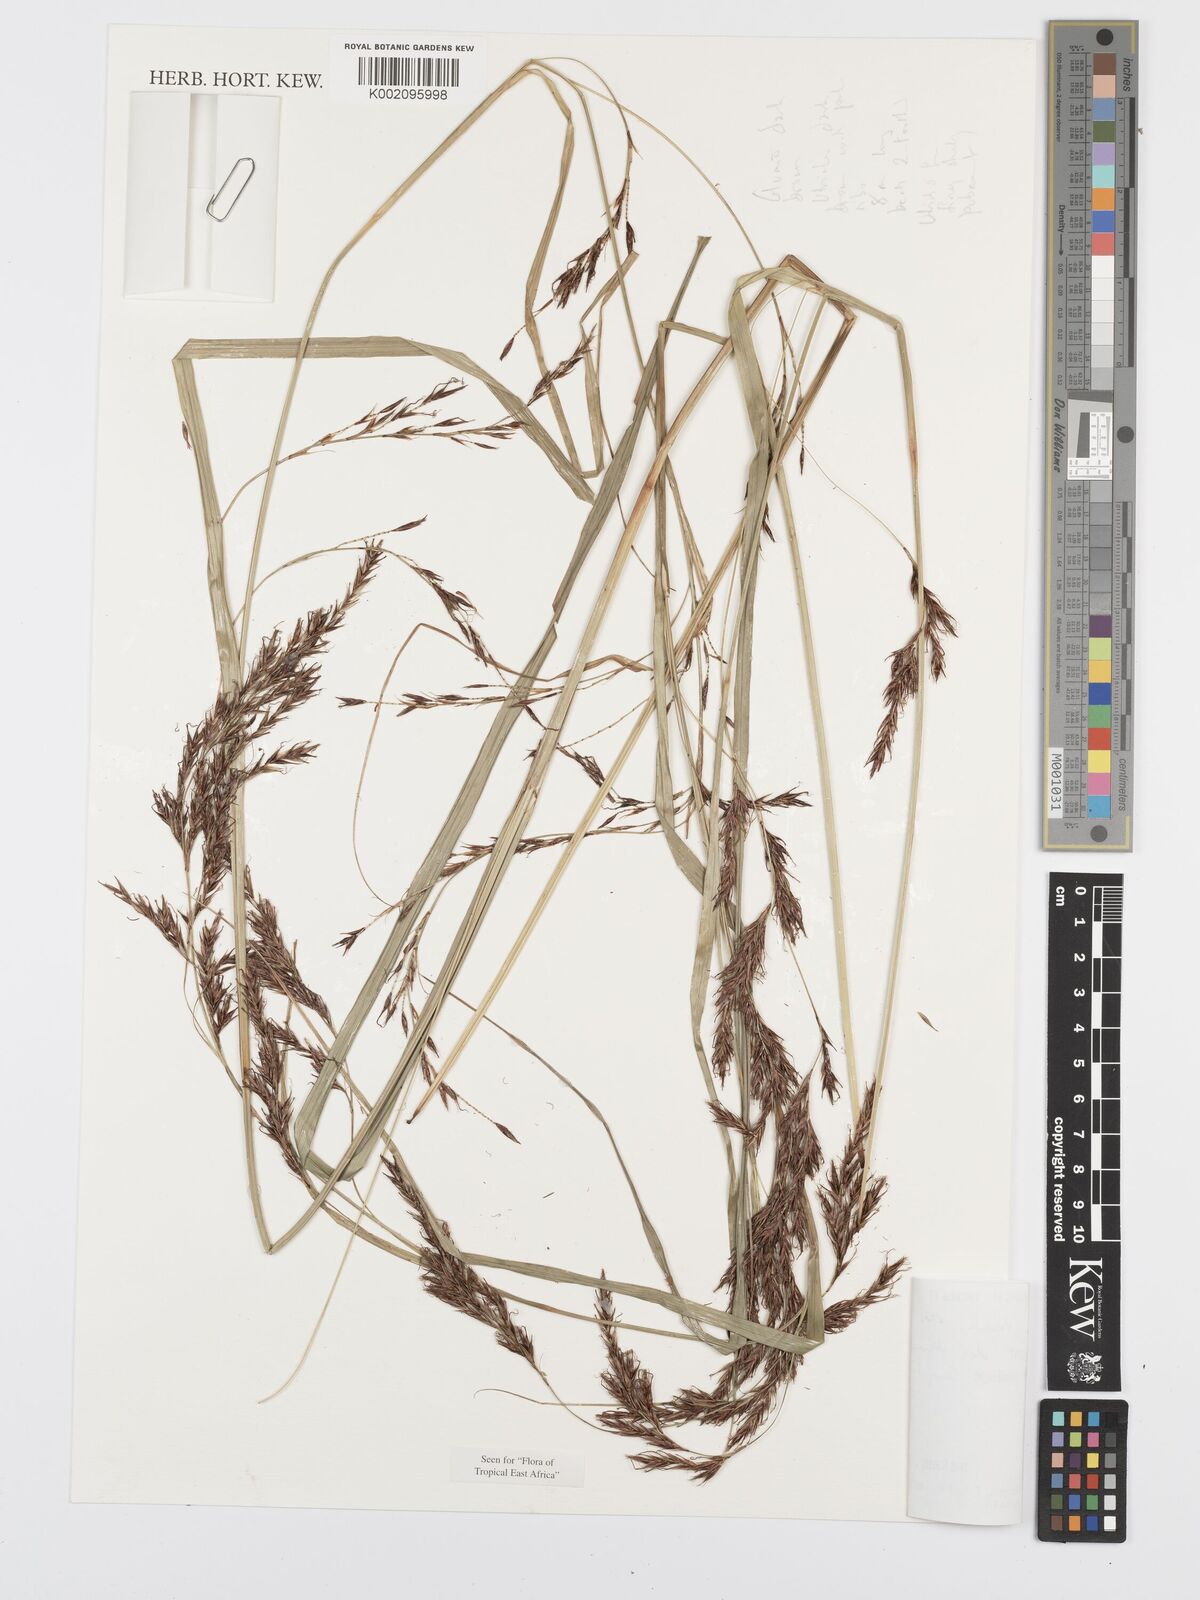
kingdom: Plantae
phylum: Tracheophyta
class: Liliopsida
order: Poales
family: Cyperaceae
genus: Carex
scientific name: Carex johnstonii
